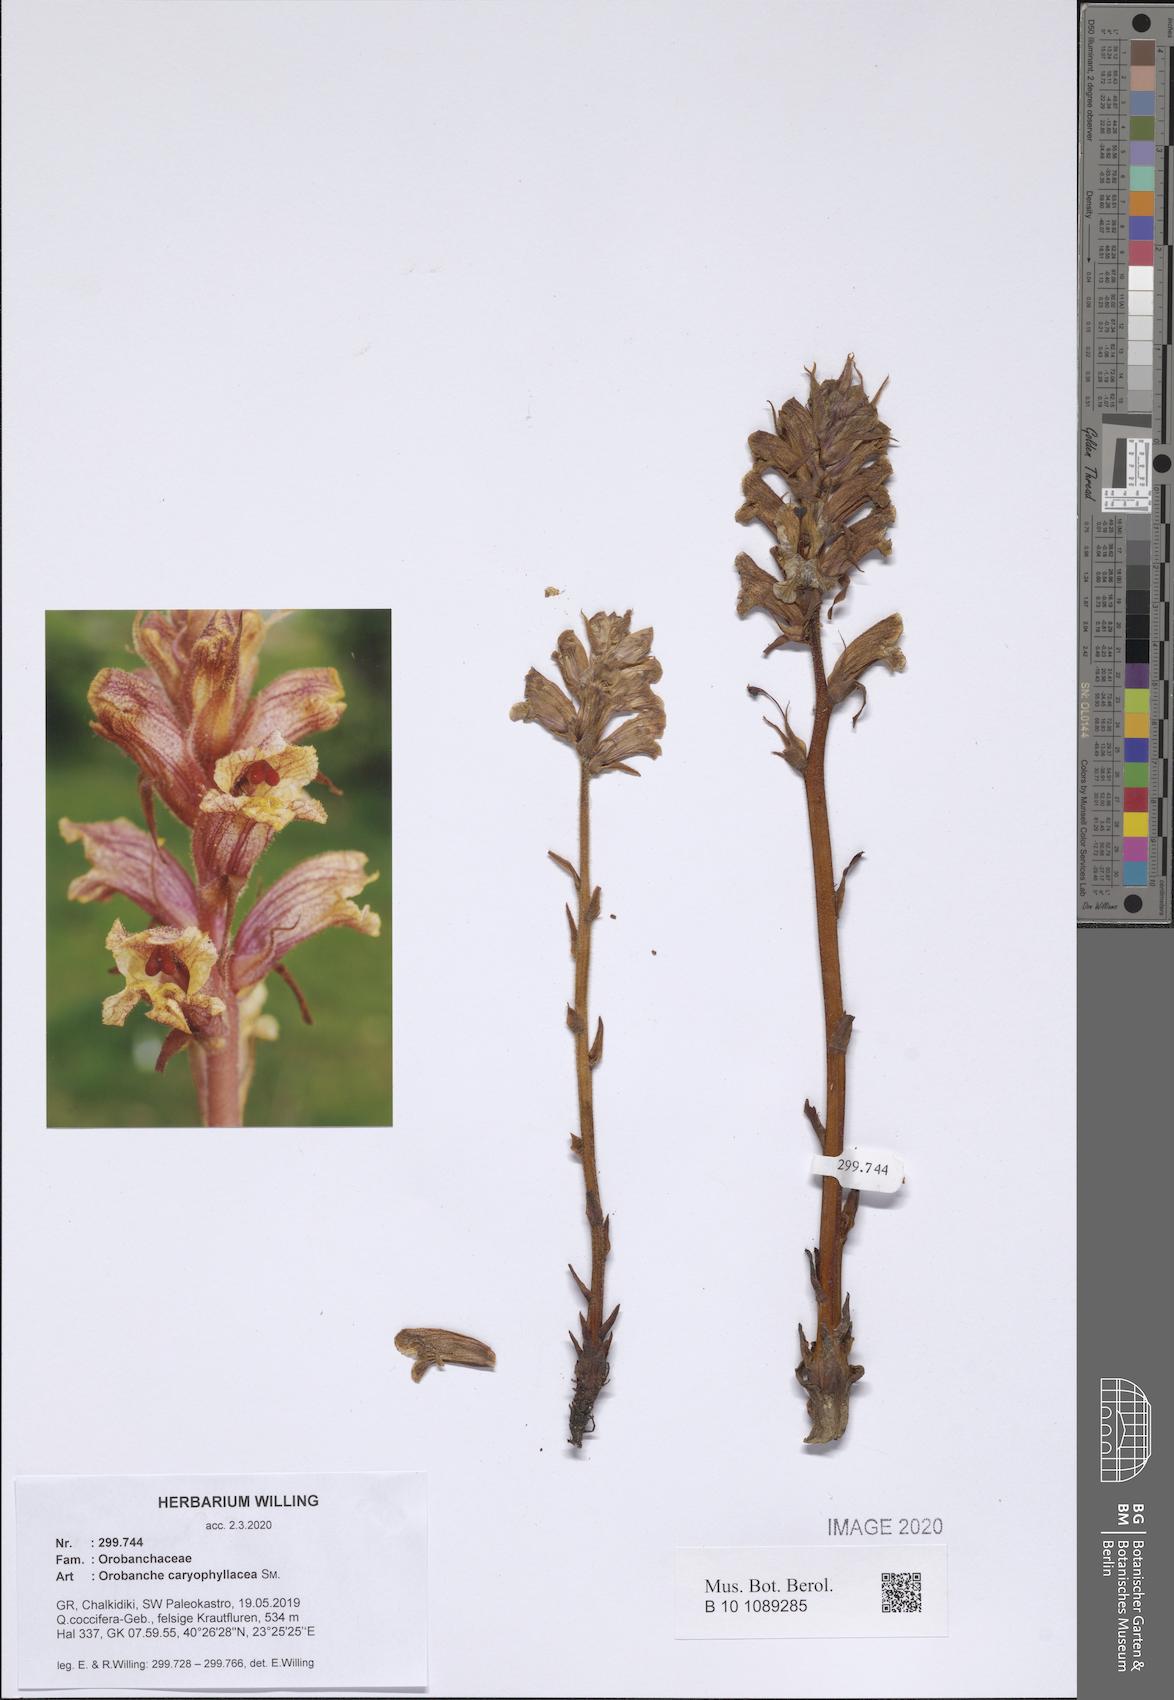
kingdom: Plantae
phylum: Tracheophyta
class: Magnoliopsida
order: Lamiales
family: Orobanchaceae
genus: Orobanche
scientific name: Orobanche caryophyllacea
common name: Bedstraw broomrape
